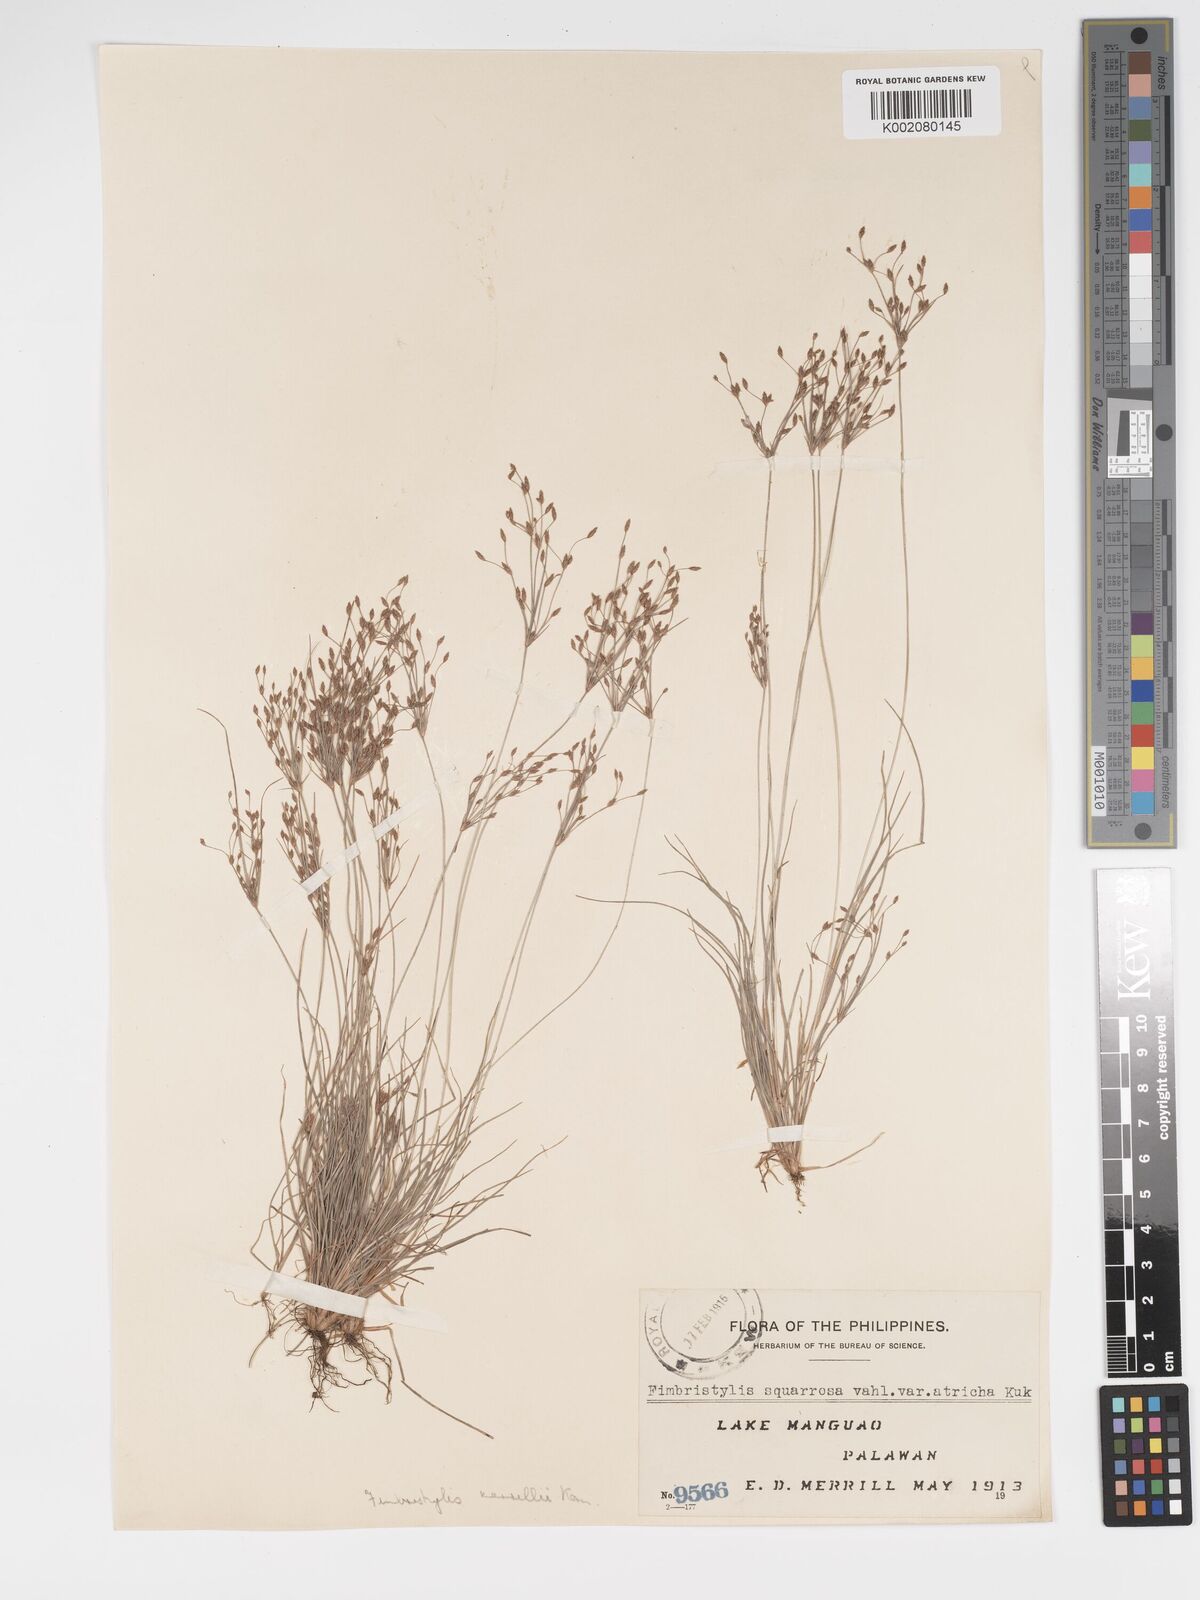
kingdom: Plantae
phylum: Tracheophyta
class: Liliopsida
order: Poales
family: Cyperaceae
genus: Fimbristylis
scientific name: Fimbristylis merrillii
